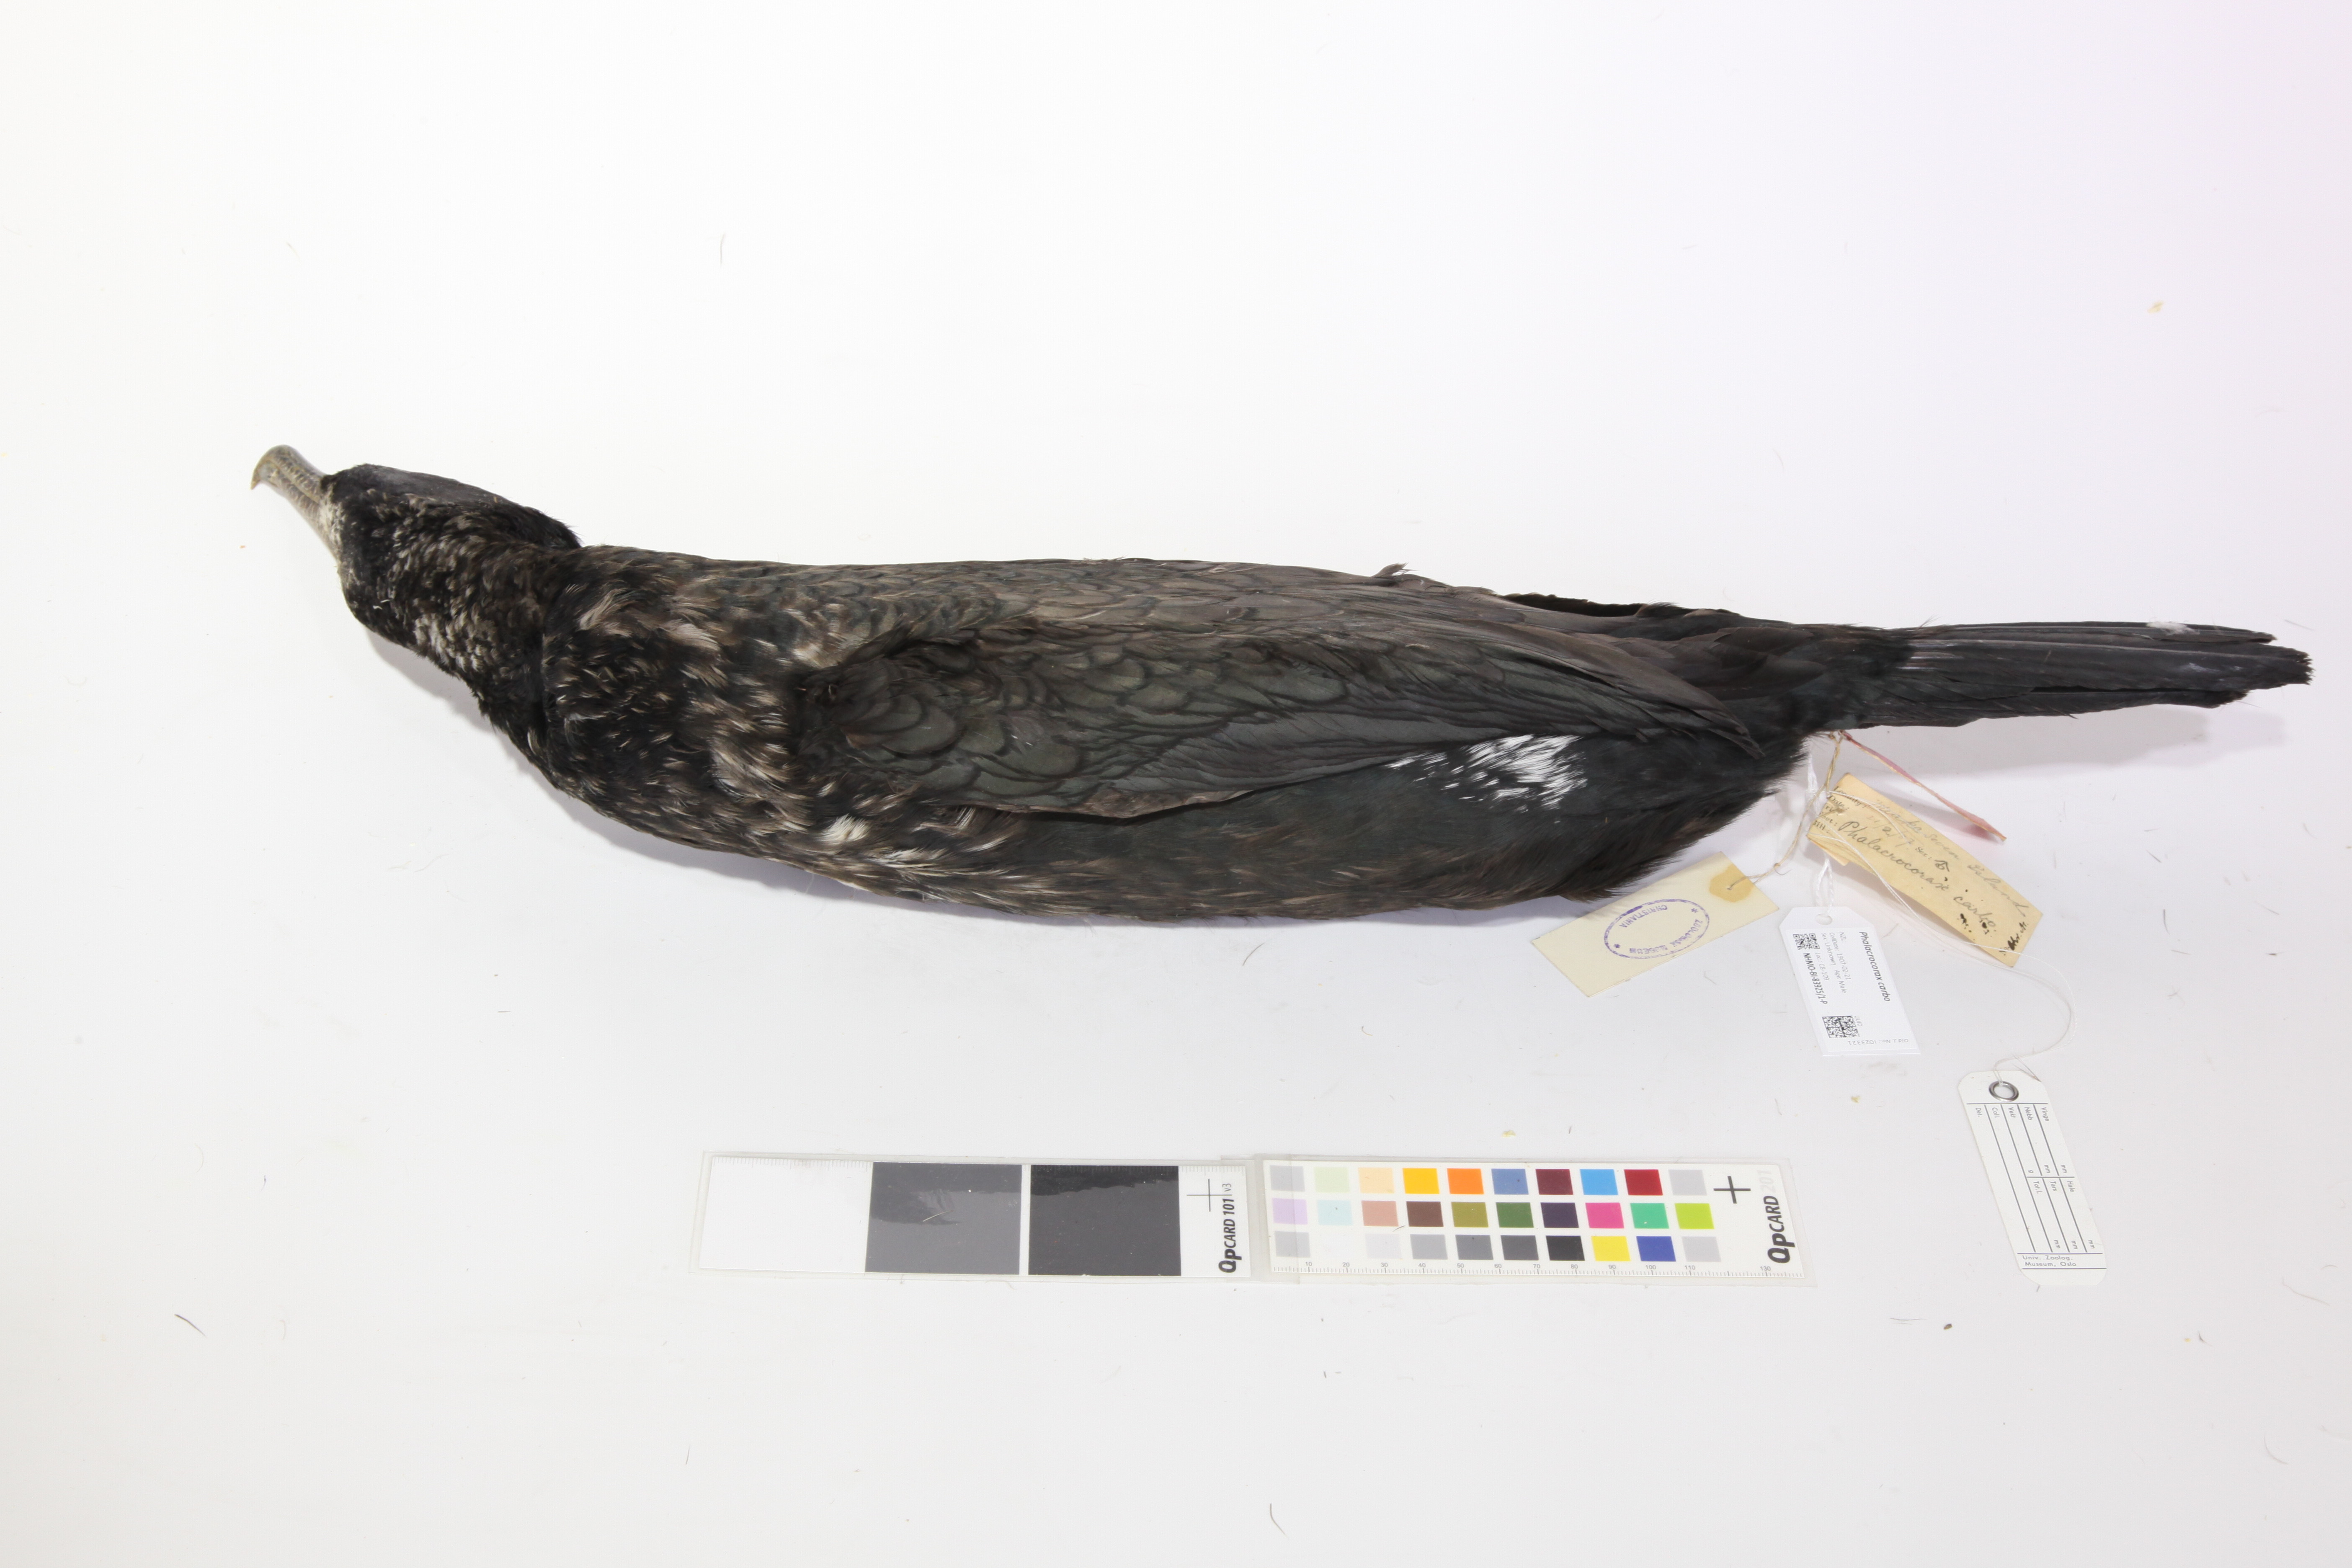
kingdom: Animalia
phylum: Chordata
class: Aves
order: Suliformes
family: Phalacrocoracidae
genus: Phalacrocorax
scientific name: Phalacrocorax carbo
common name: Great cormorant
